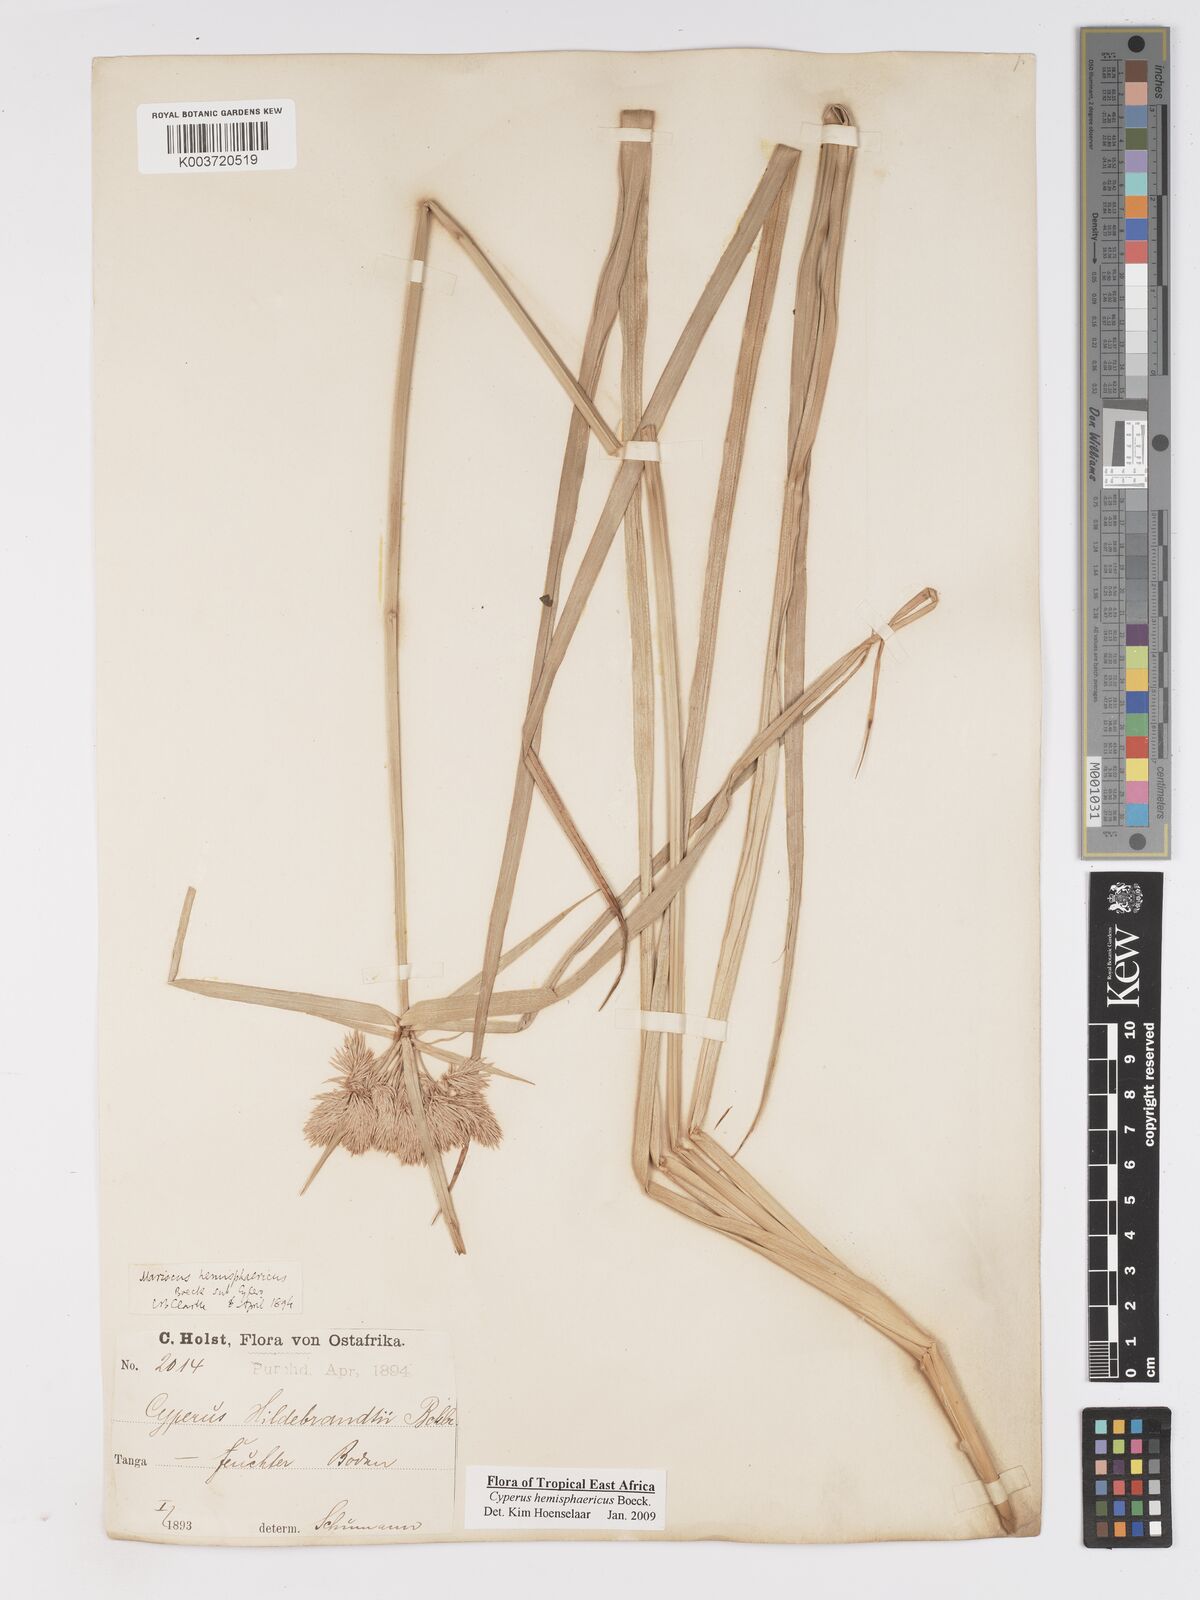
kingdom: Plantae
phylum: Tracheophyta
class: Liliopsida
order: Poales
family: Cyperaceae
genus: Cyperus
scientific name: Cyperus hemisphaericus
